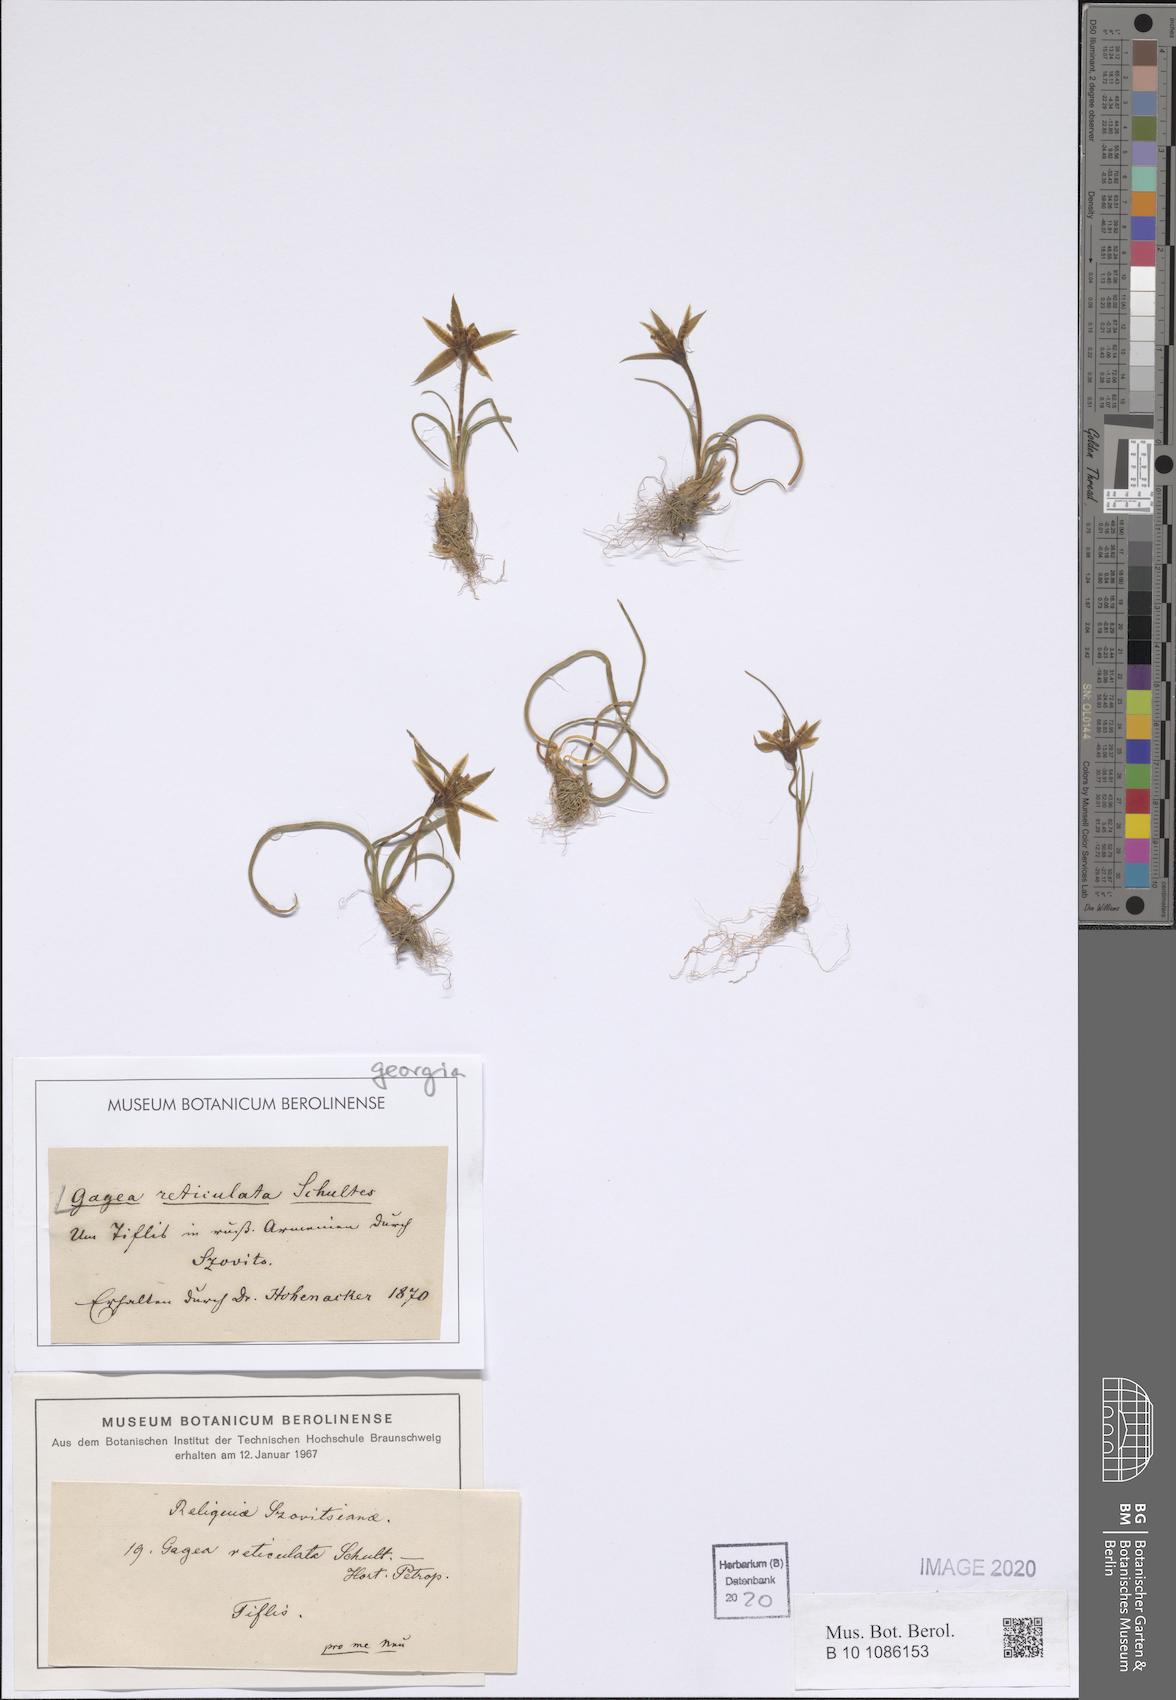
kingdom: Plantae
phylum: Tracheophyta
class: Liliopsida
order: Liliales
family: Liliaceae
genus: Gagea
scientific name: Gagea reticulata
